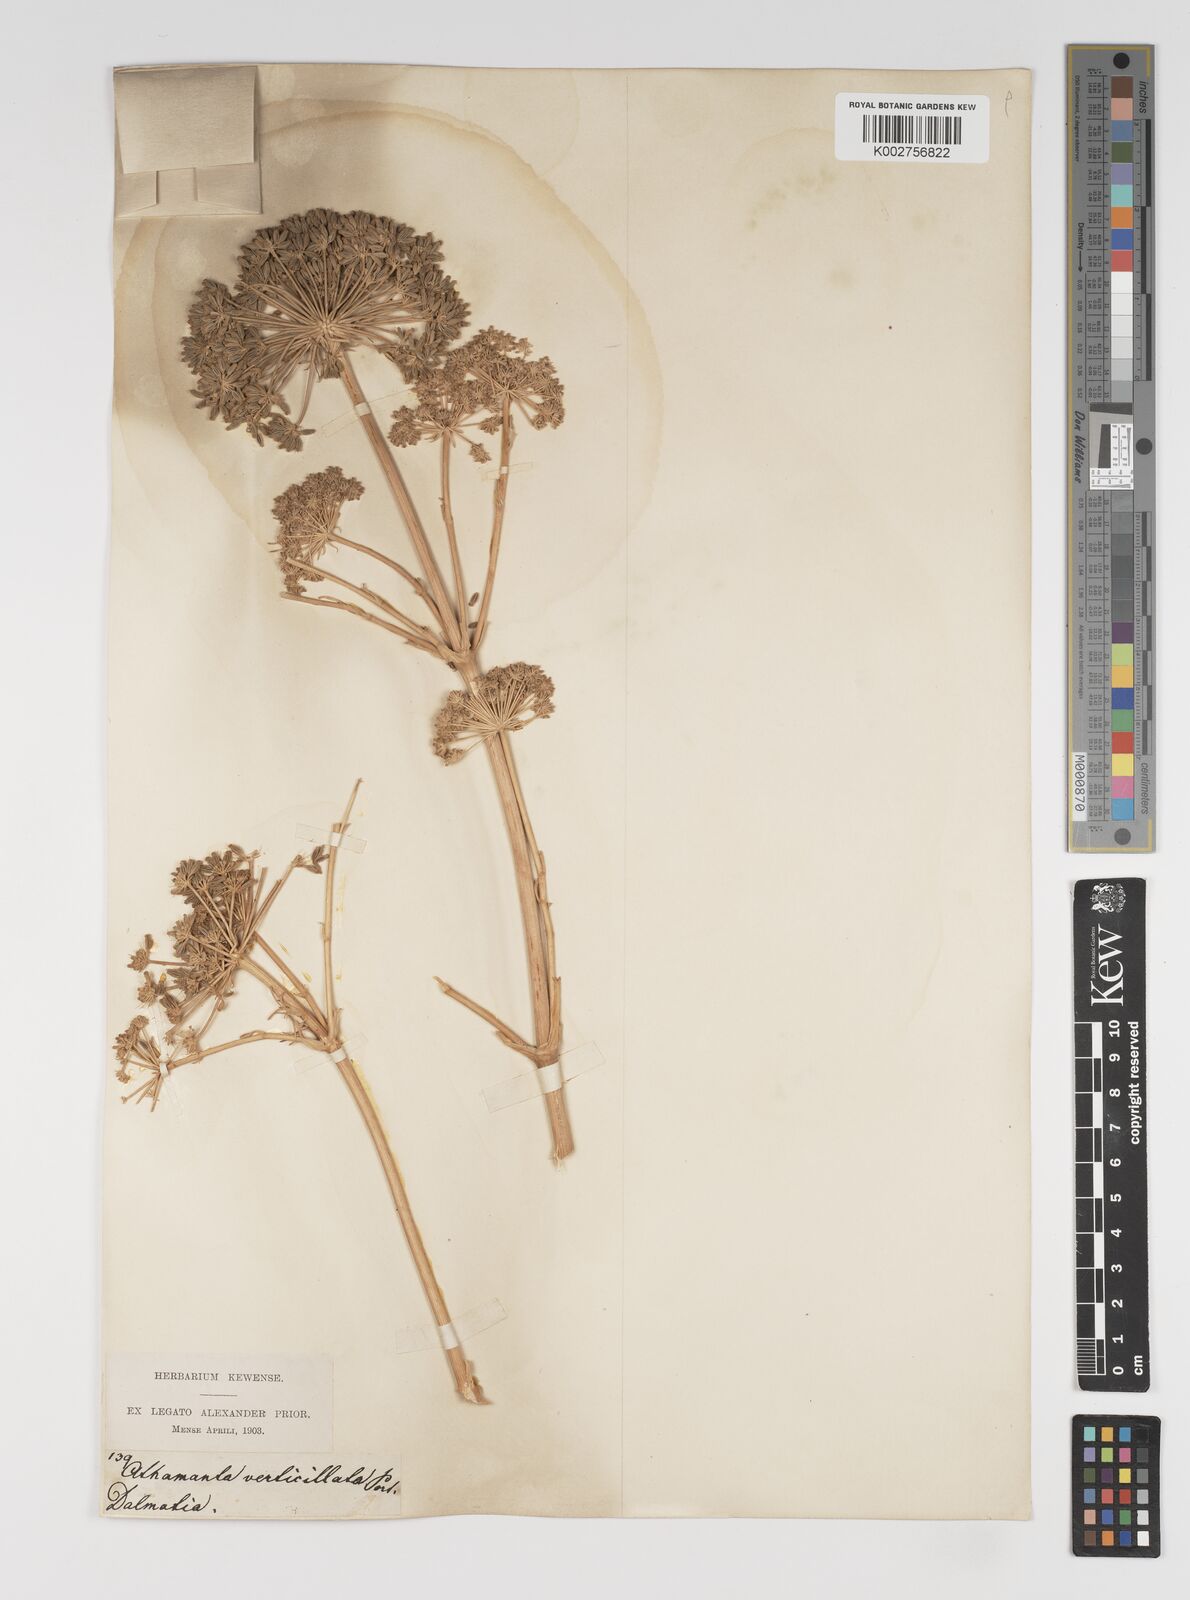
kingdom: Plantae
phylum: Tracheophyta
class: Magnoliopsida
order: Apiales
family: Apiaceae
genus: Athamanta
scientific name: Athamanta ramosissima
